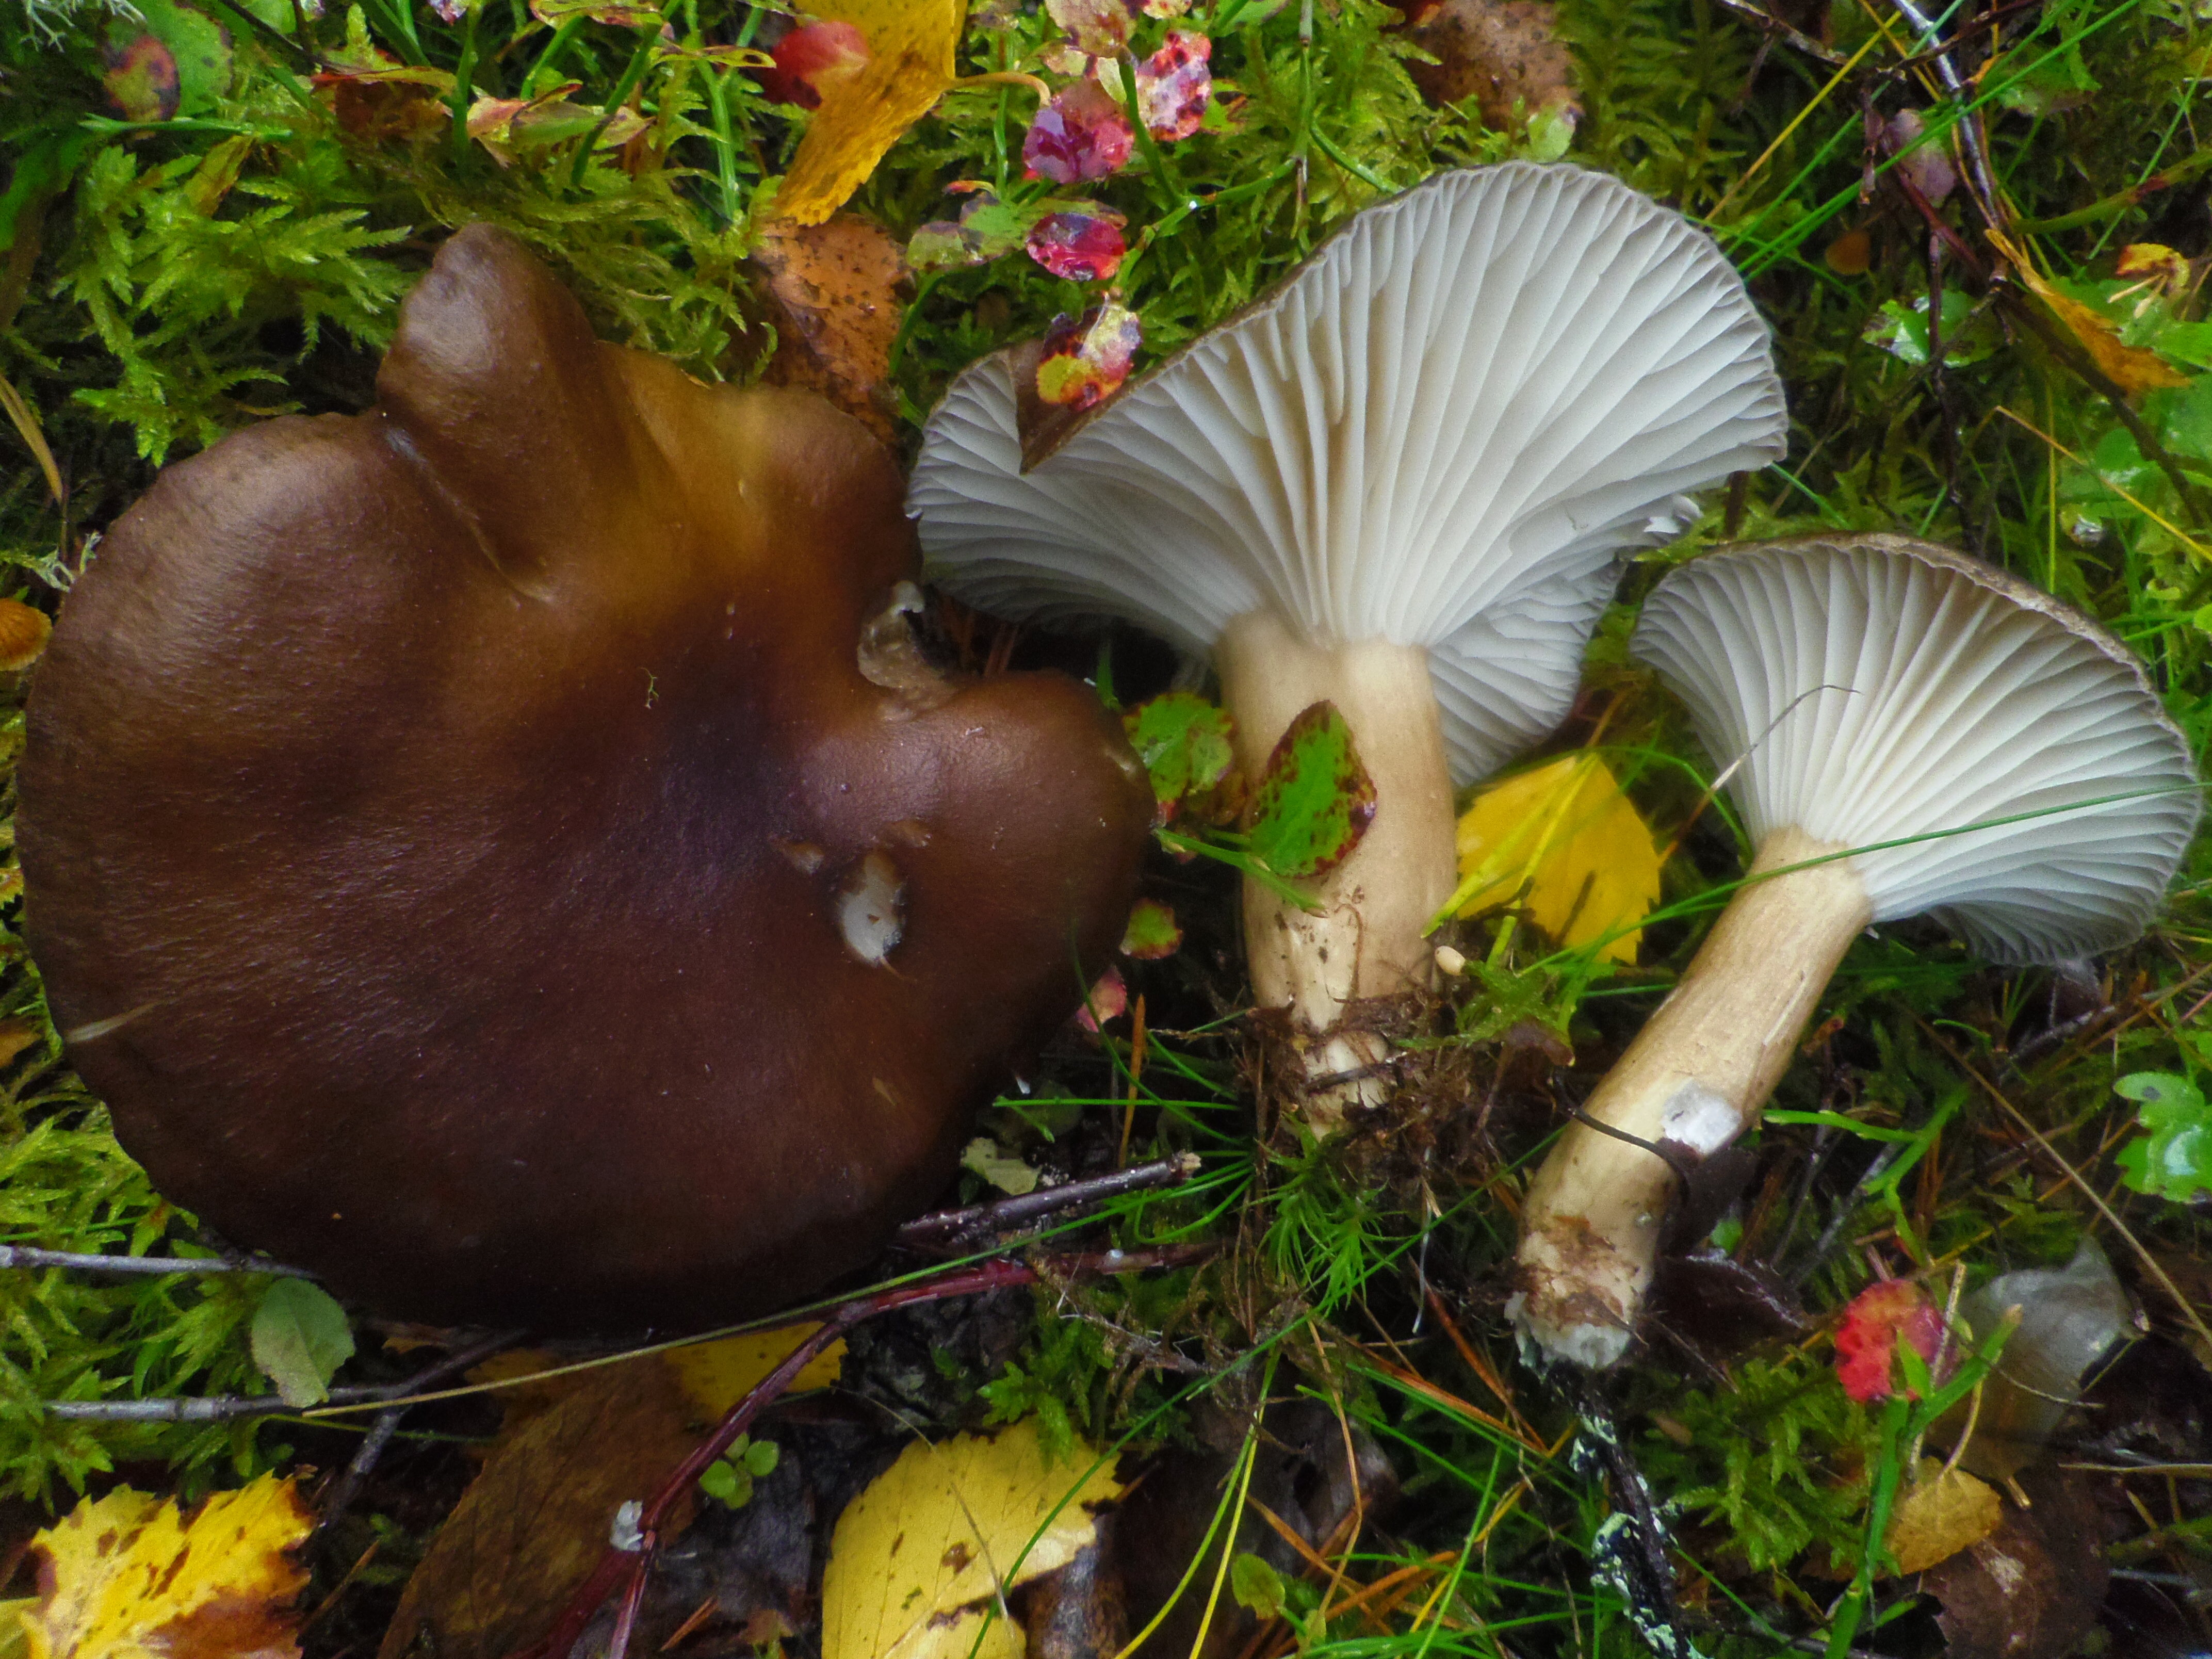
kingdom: Fungi
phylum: Basidiomycota
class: Agaricomycetes
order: Agaricales
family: Hygrophoraceae
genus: Hygrophorus
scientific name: Hygrophorus camarophyllus
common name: Arched woodwax
